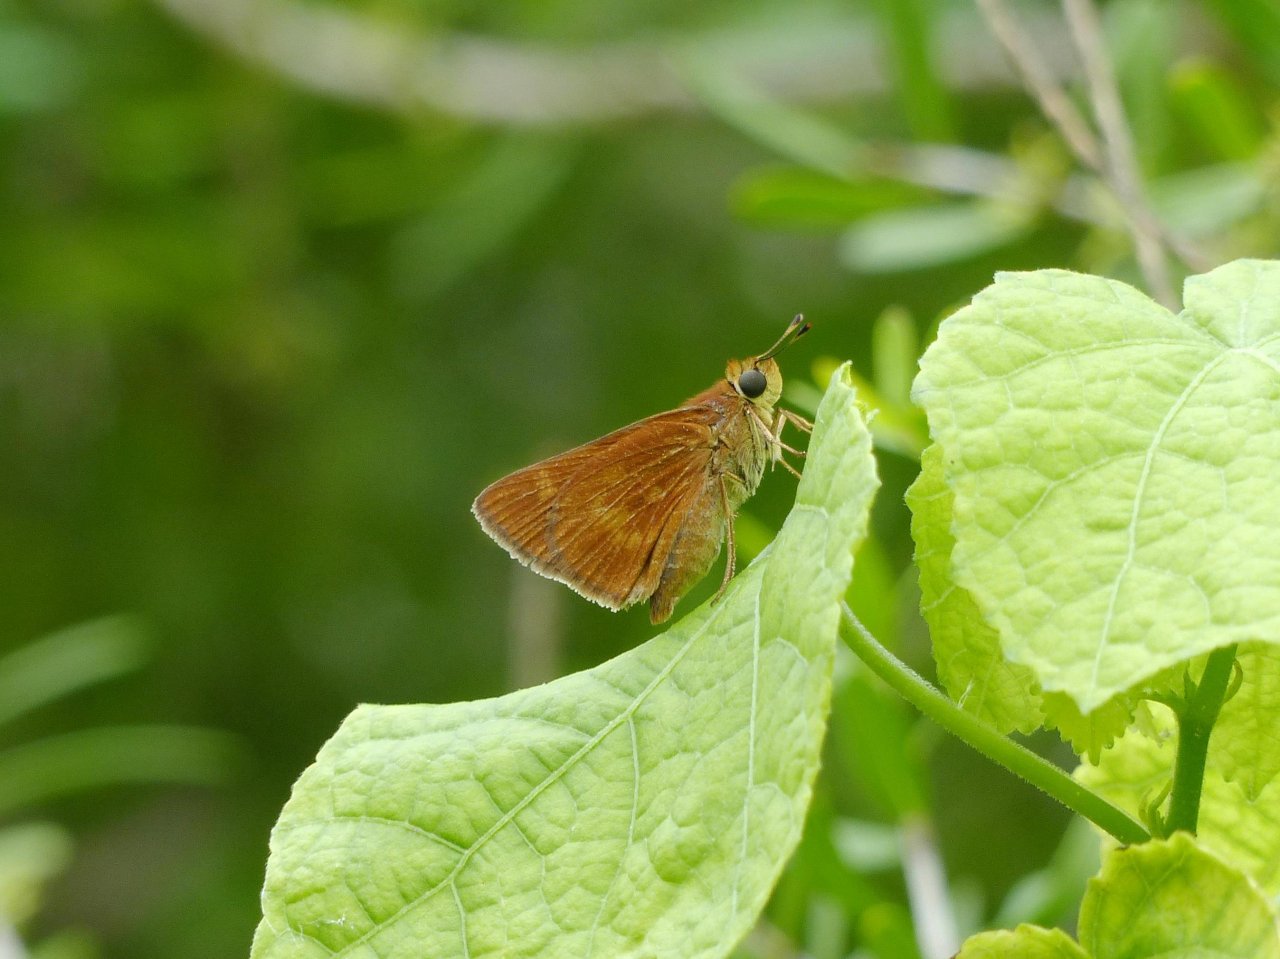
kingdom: Animalia
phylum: Arthropoda
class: Insecta
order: Lepidoptera
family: Hesperiidae
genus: Wallengrenia
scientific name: Wallengrenia otho
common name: Southern Broken-Dash
